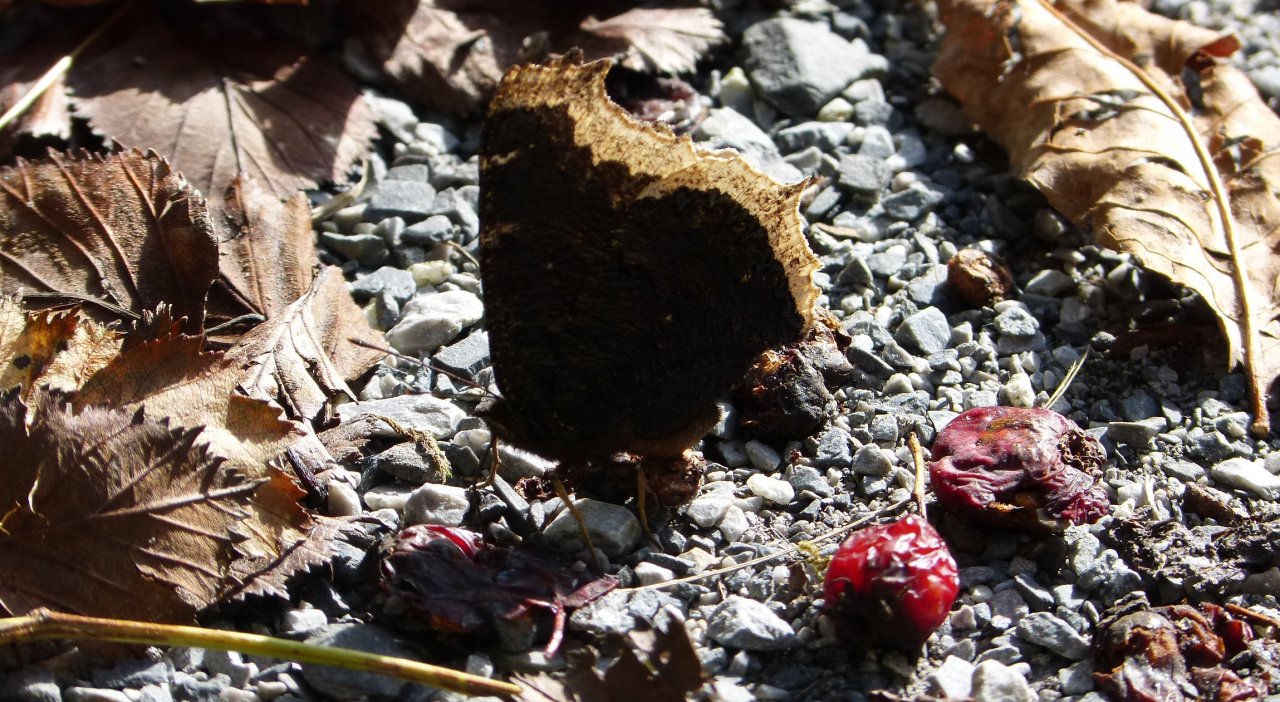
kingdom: Animalia
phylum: Arthropoda
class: Insecta
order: Lepidoptera
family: Nymphalidae
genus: Nymphalis
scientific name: Nymphalis antiopa
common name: Mourning Cloak
